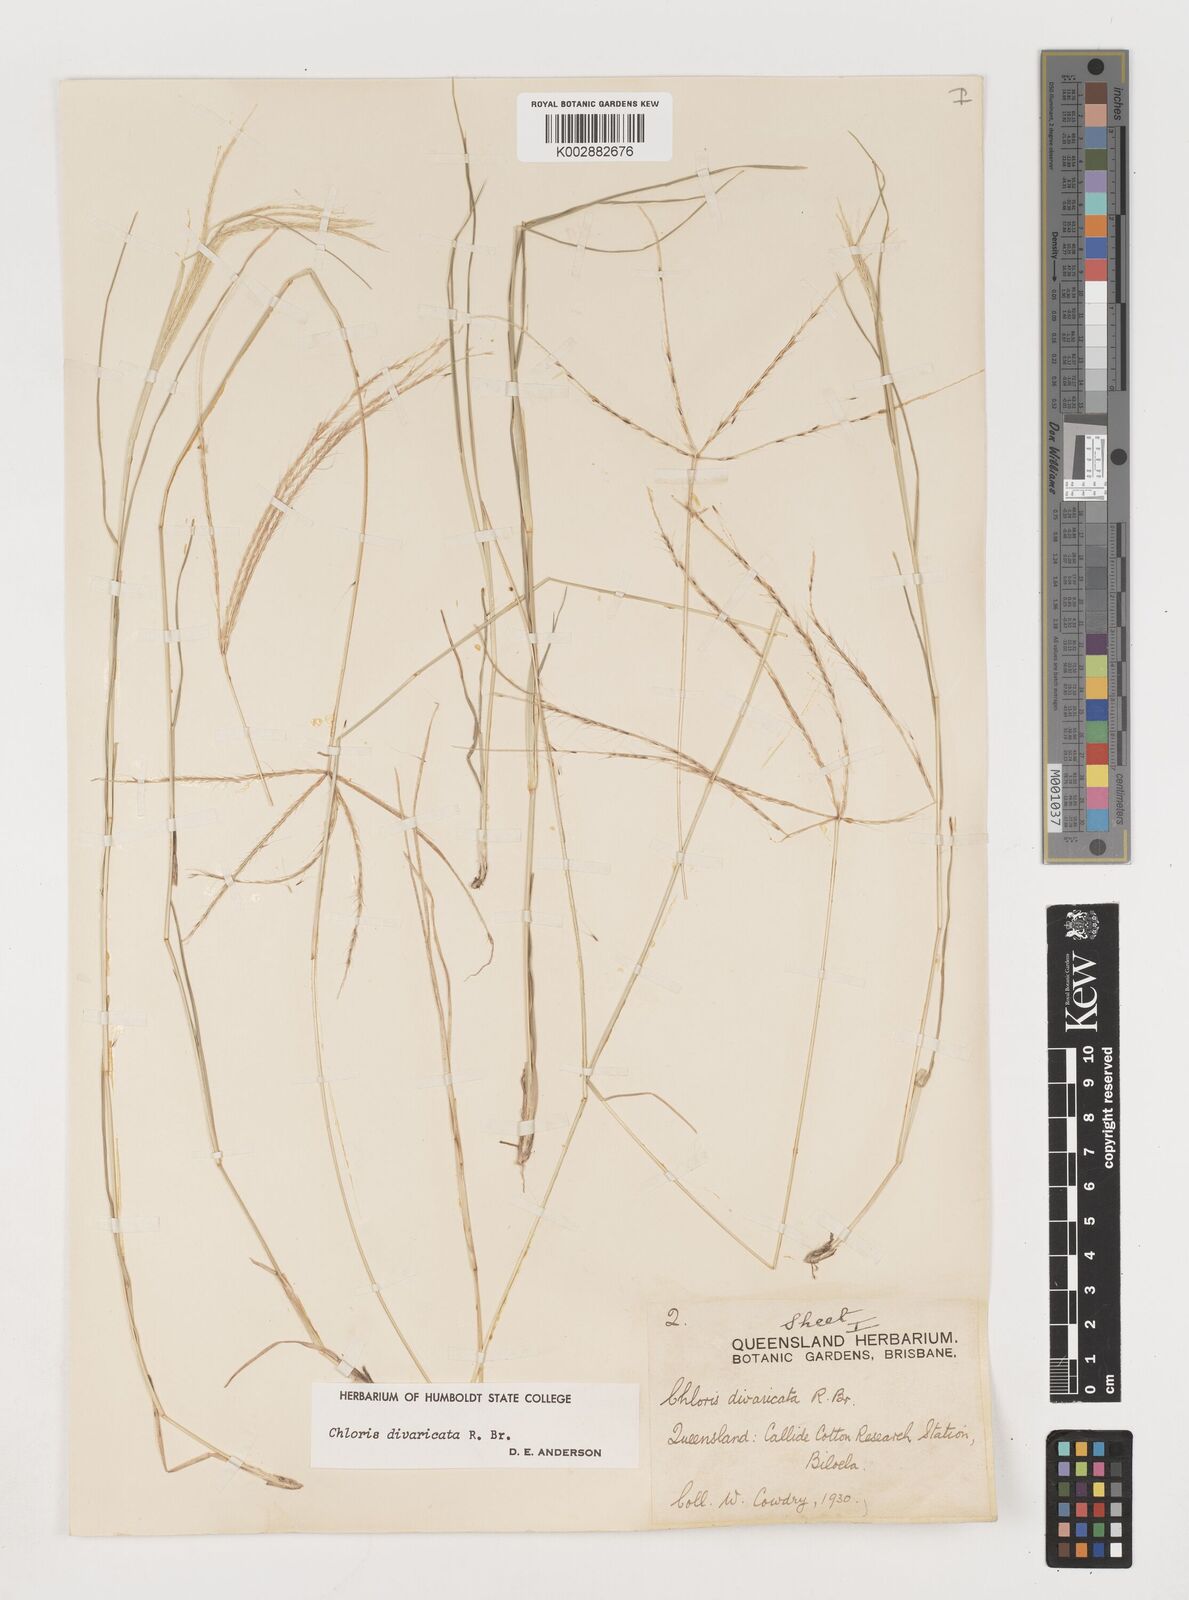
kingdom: Plantae
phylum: Tracheophyta
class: Liliopsida
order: Poales
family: Poaceae
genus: Chloris
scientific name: Chloris divaricata
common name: Spreading windmill grass
